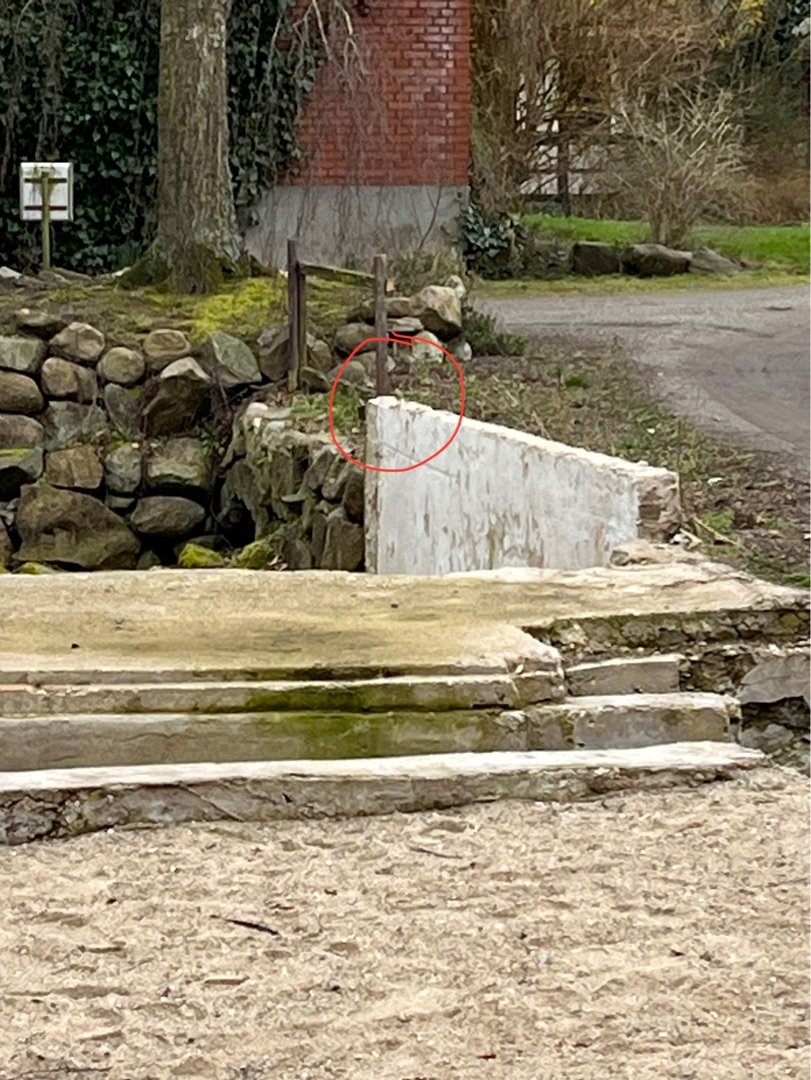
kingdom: Animalia
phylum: Chordata
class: Aves
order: Passeriformes
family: Motacillidae
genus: Motacilla
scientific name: Motacilla cinerea
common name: Bjergvipstjert
